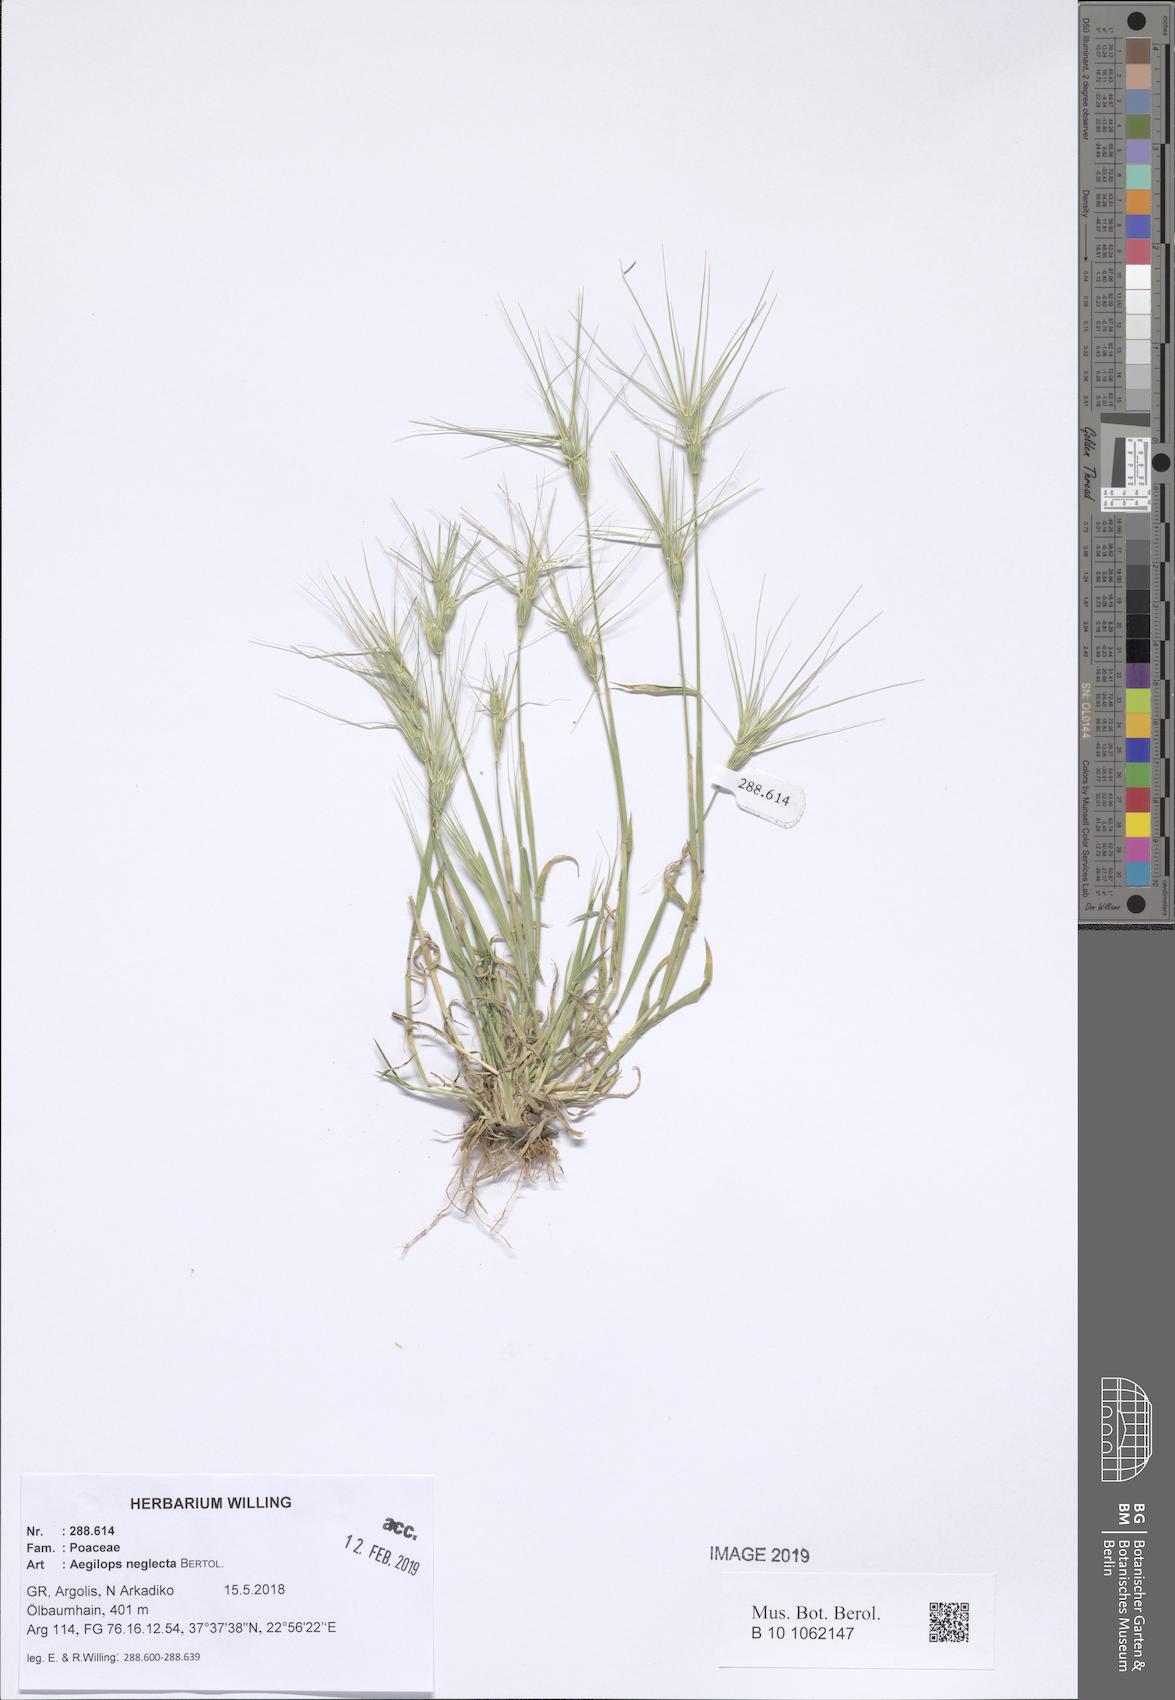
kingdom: Plantae
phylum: Tracheophyta
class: Liliopsida
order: Poales
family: Poaceae
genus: Aegilops
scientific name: Aegilops neglecta
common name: Three-awn goat grass
